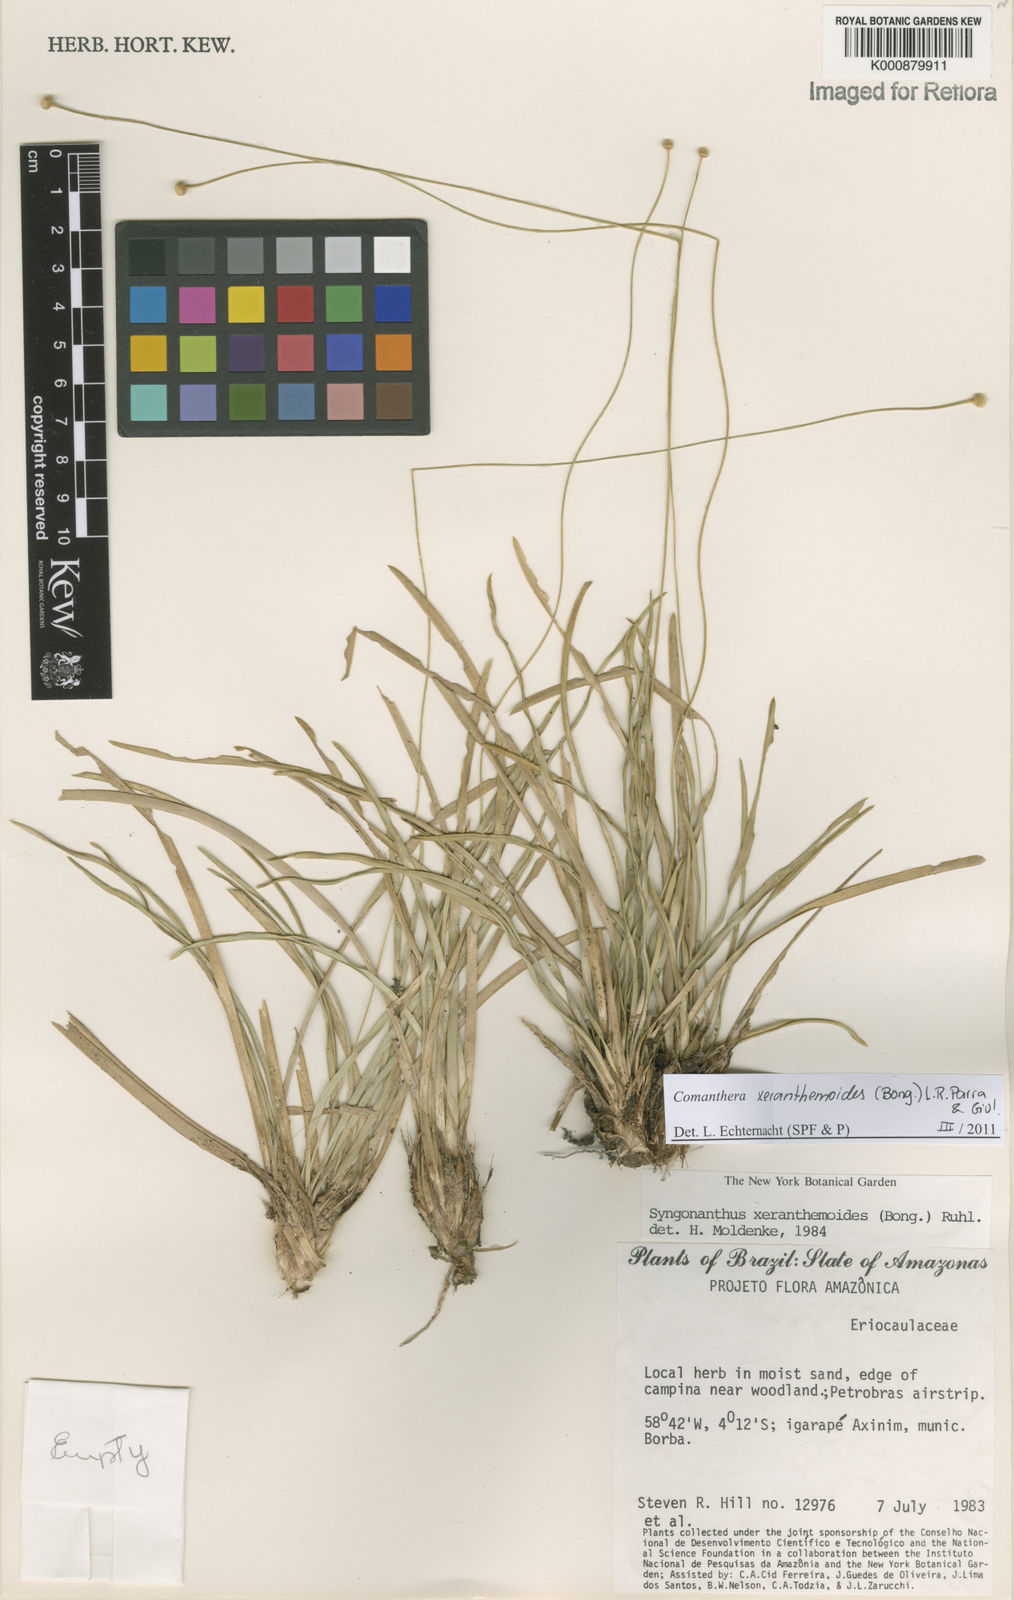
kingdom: Plantae
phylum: Tracheophyta
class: Liliopsida
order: Poales
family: Eriocaulaceae
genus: Comanthera
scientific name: Comanthera xeranthemoides
